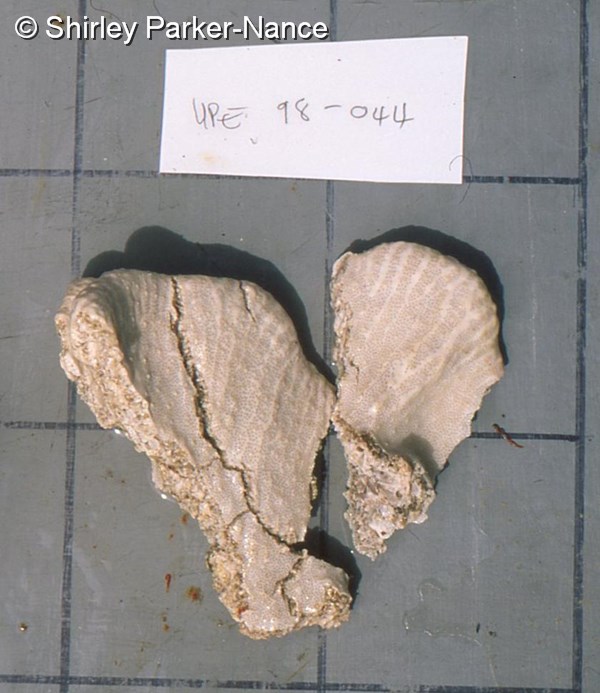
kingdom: Animalia
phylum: Chordata
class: Ascidiacea
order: Aplousobranchia
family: Didemnidae
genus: Leptoclinides
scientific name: Leptoclinides
